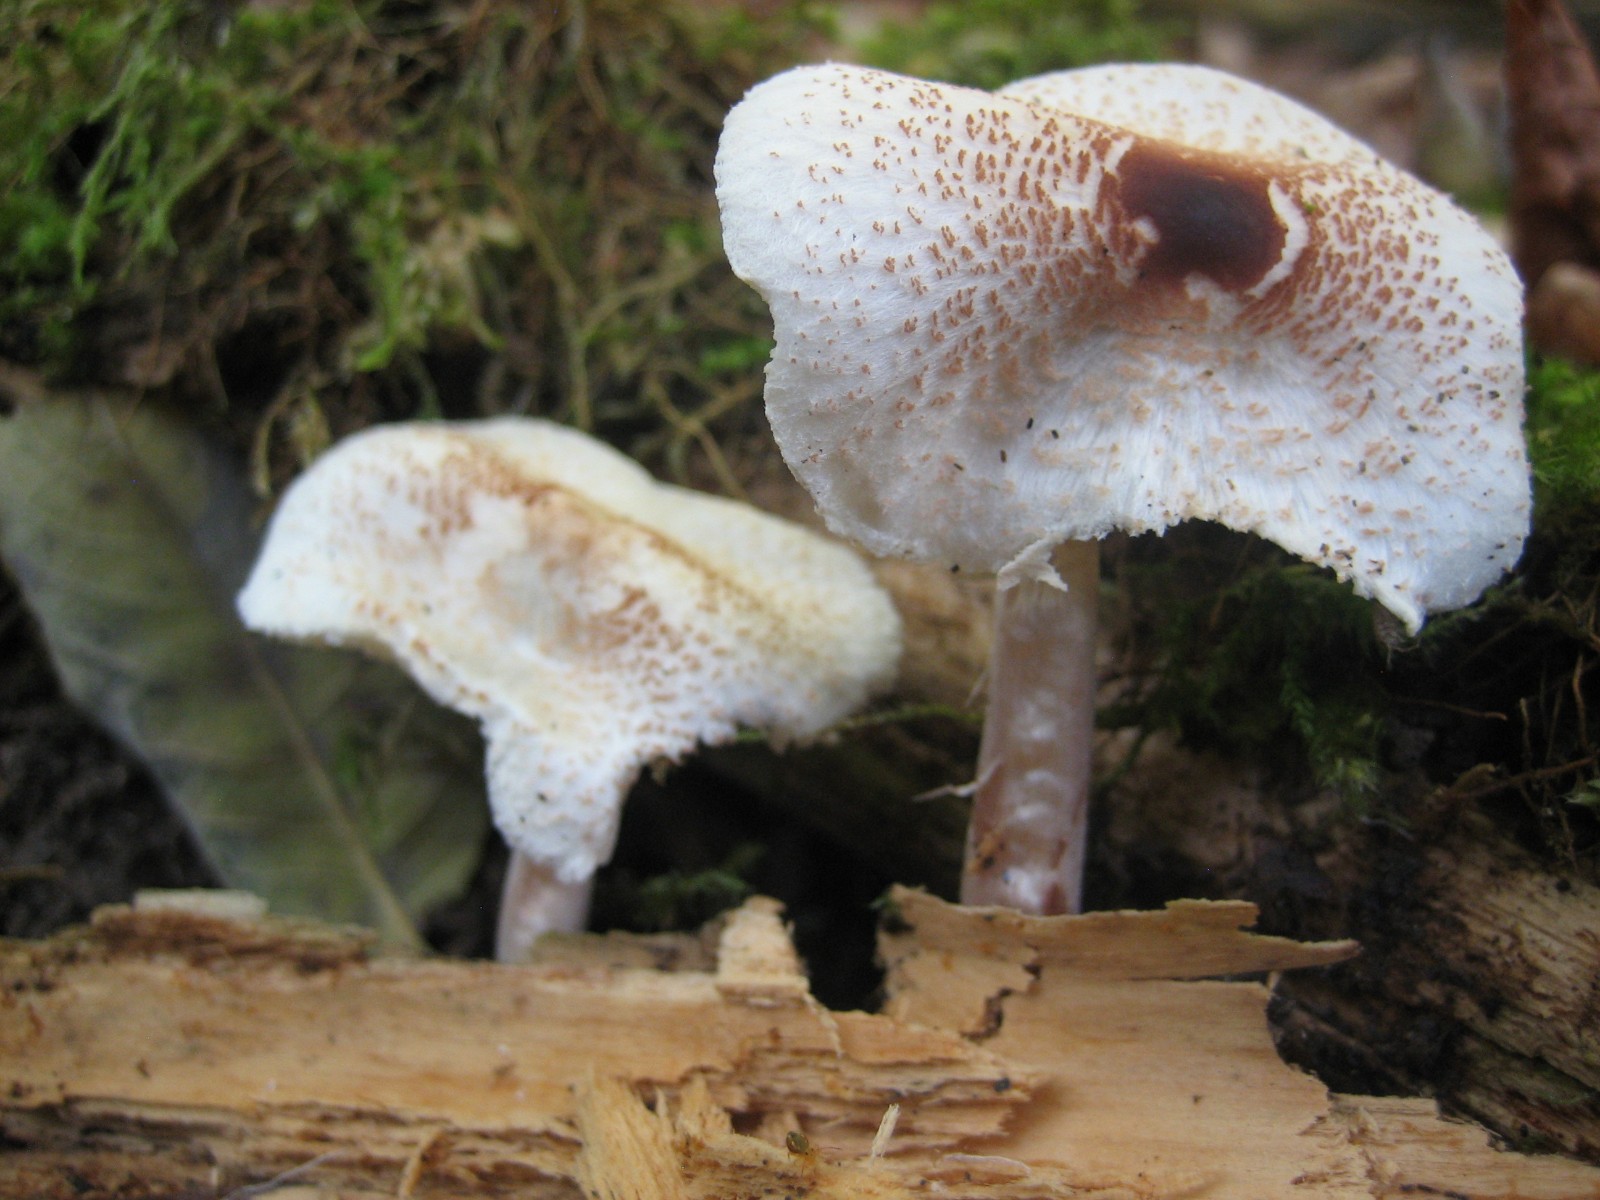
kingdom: Fungi
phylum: Basidiomycota
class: Agaricomycetes
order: Agaricales
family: Agaricaceae
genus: Lepiota
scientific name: Lepiota cristata
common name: stinkende parasolhat
